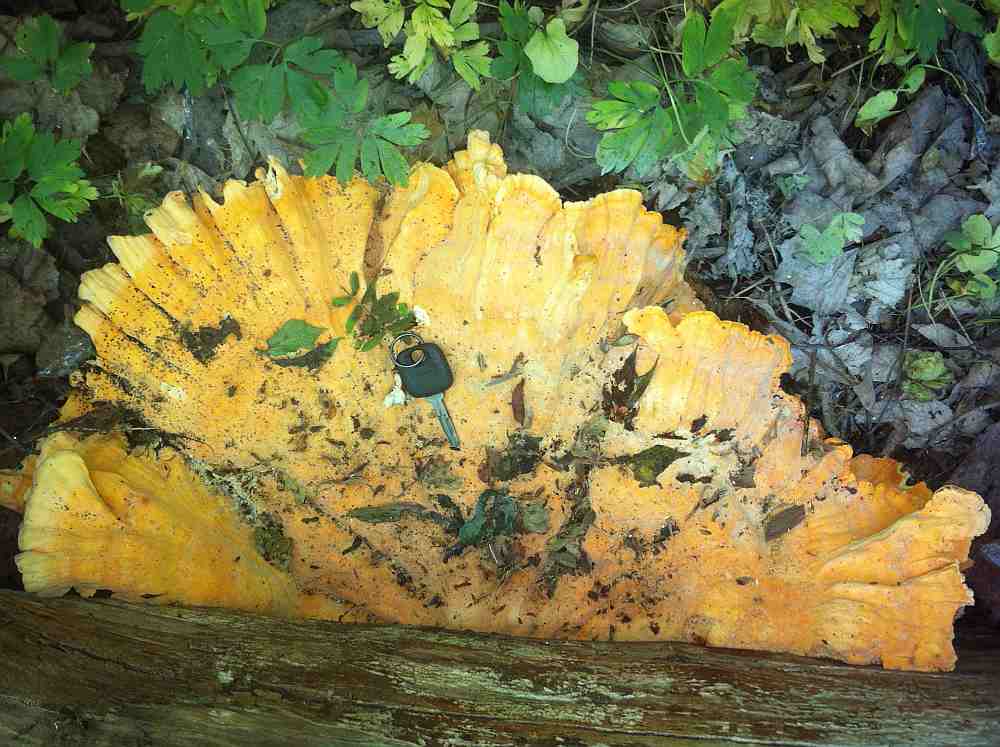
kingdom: Fungi
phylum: Basidiomycota
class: Agaricomycetes
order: Polyporales
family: Laetiporaceae
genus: Laetiporus
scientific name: Laetiporus sulphureus
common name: svovlporesvamp
